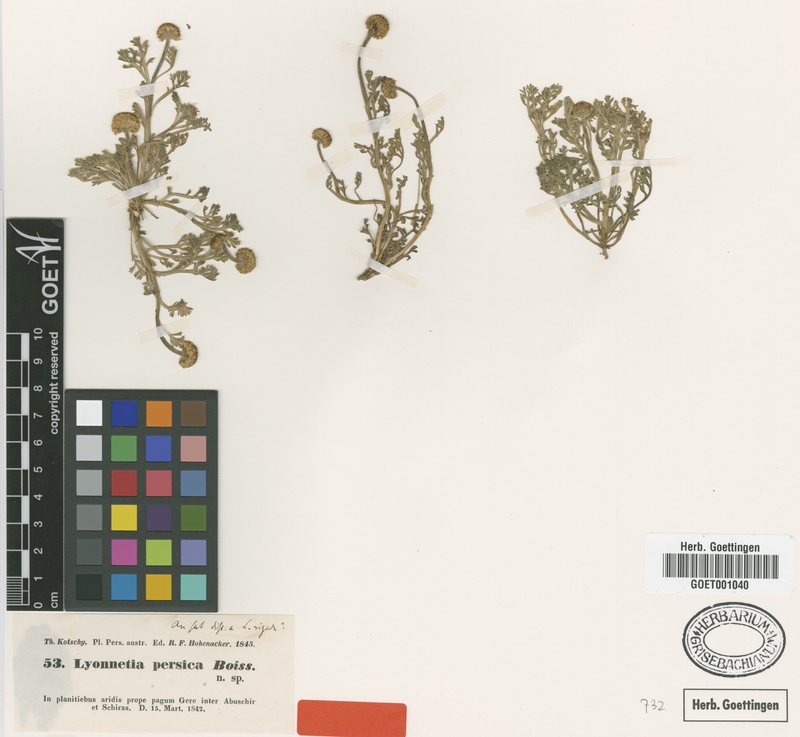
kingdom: Plantae
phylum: Tracheophyta
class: Magnoliopsida
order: Asterales
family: Asteraceae
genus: Anthemis
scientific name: Anthemis persica
